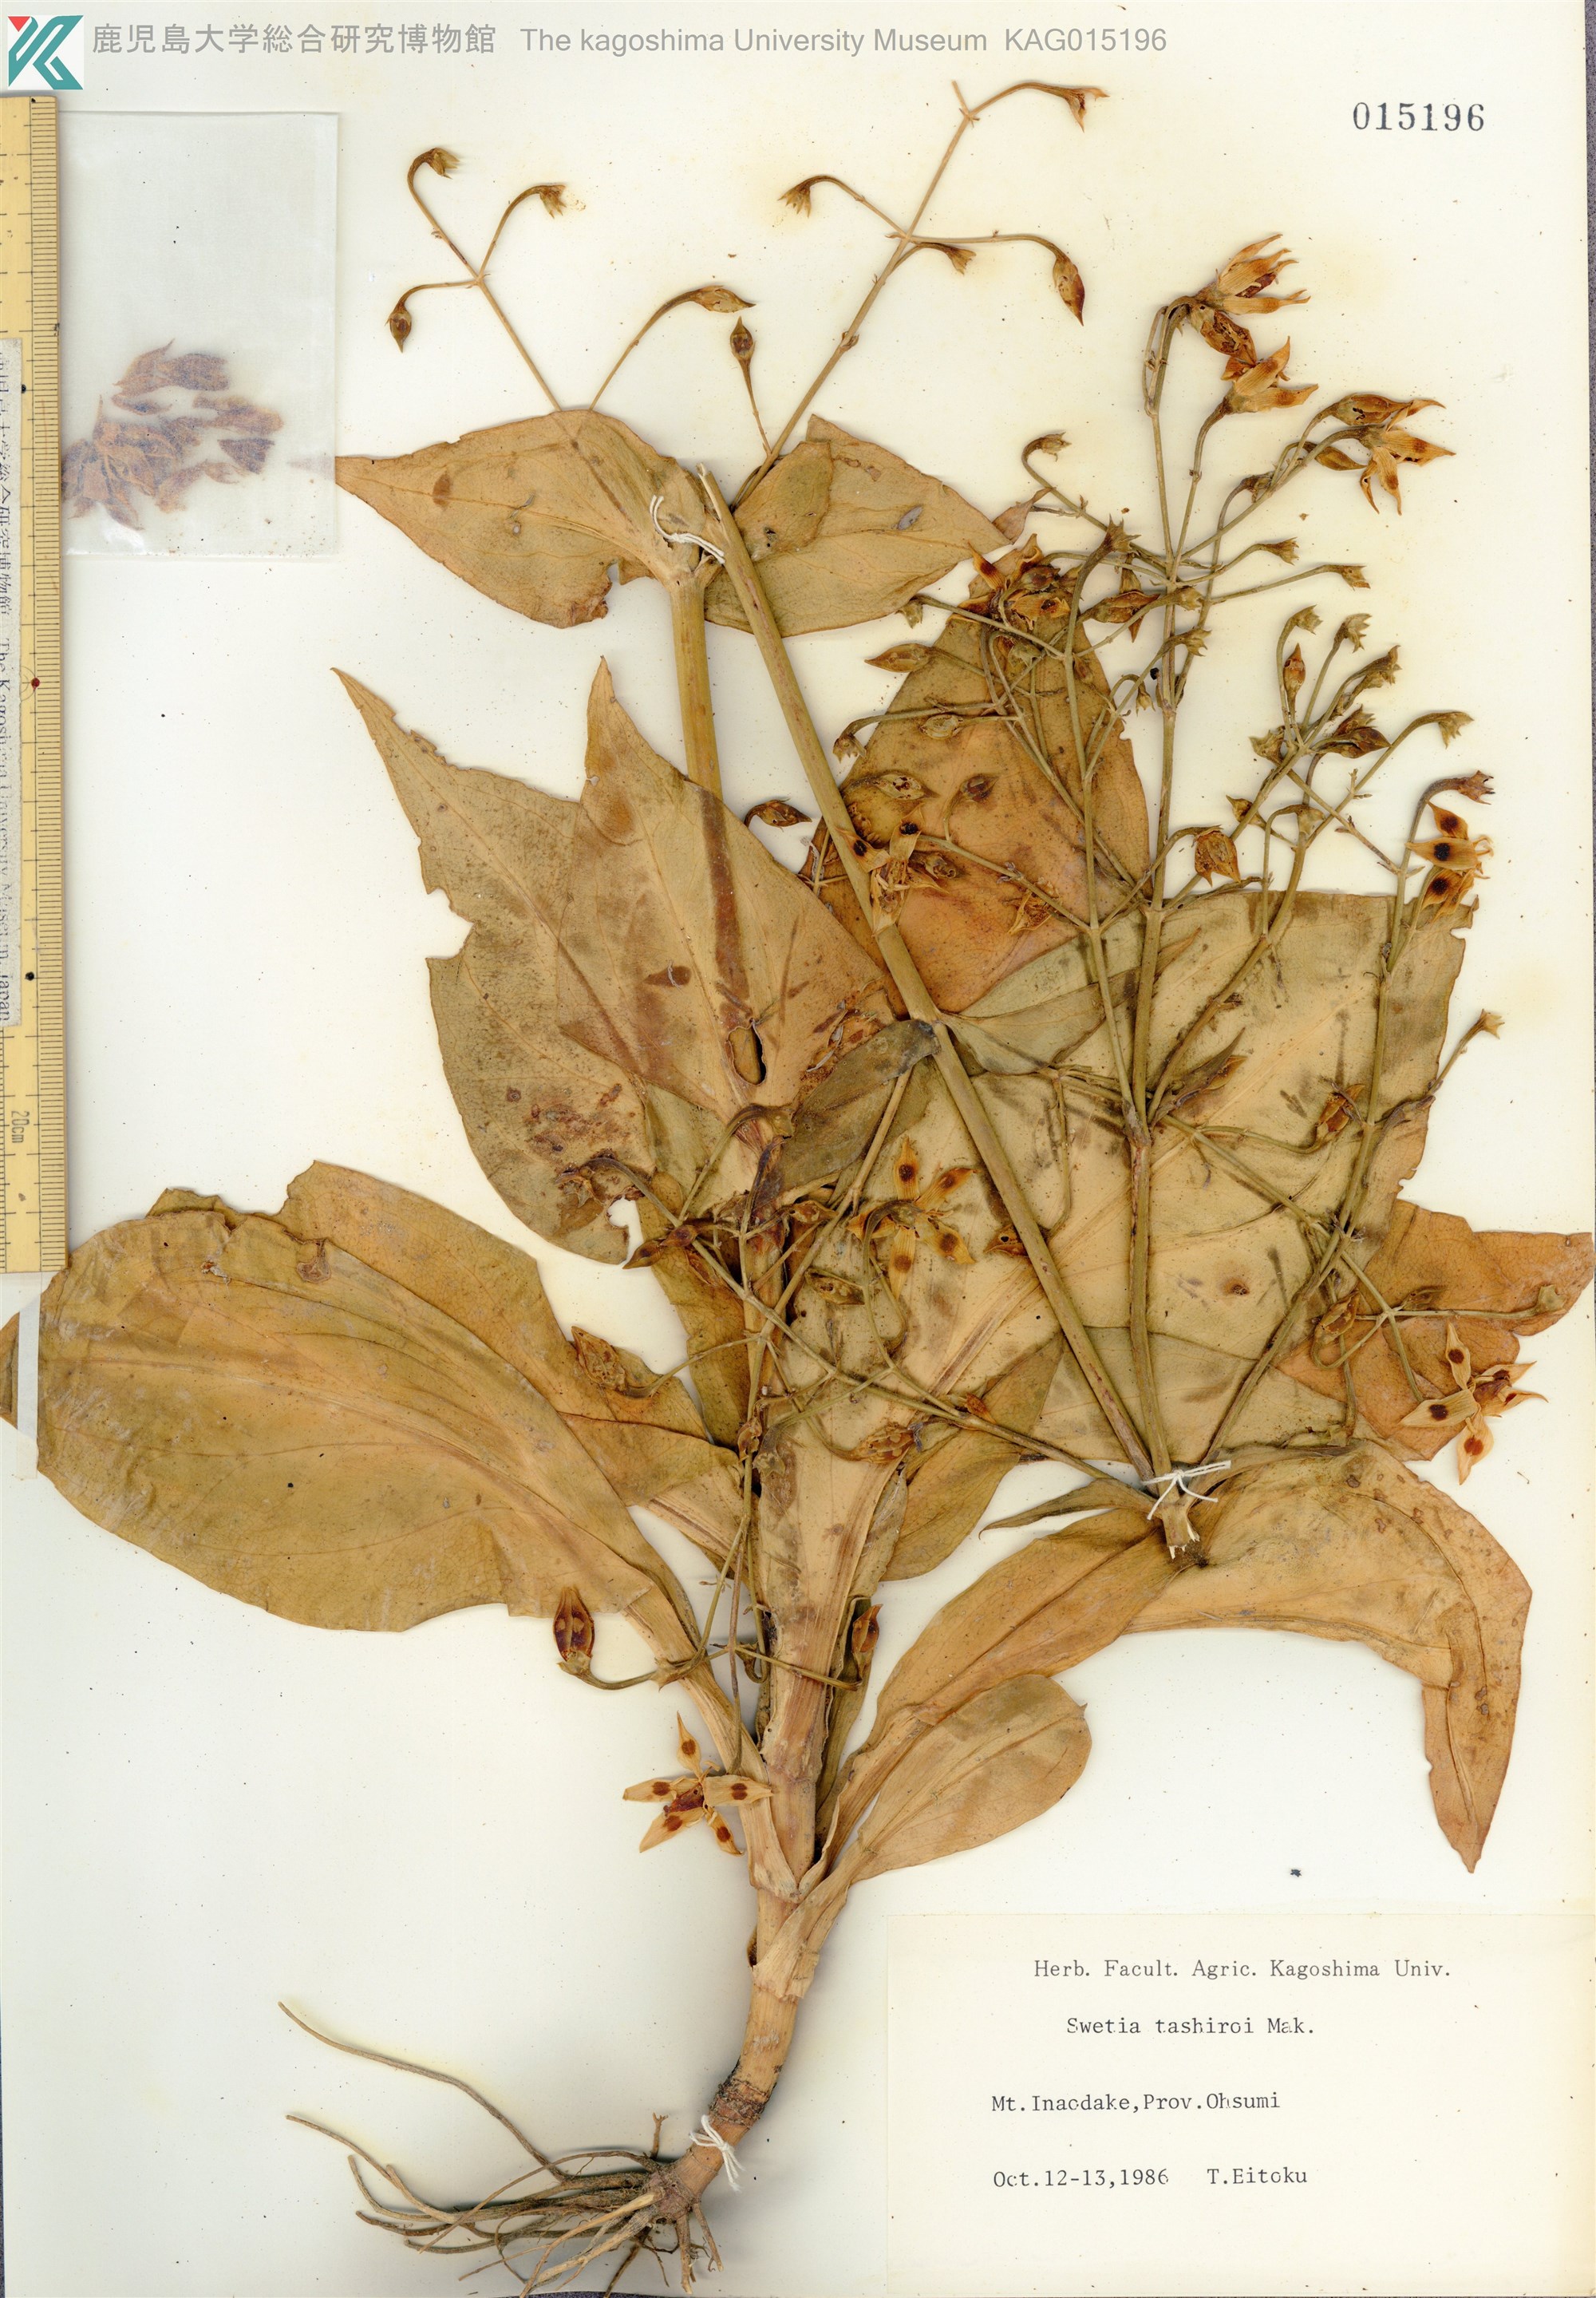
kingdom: Plantae
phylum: Tracheophyta
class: Magnoliopsida
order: Gentianales
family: Gentianaceae
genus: Swertia
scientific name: Swertia tashiroi
